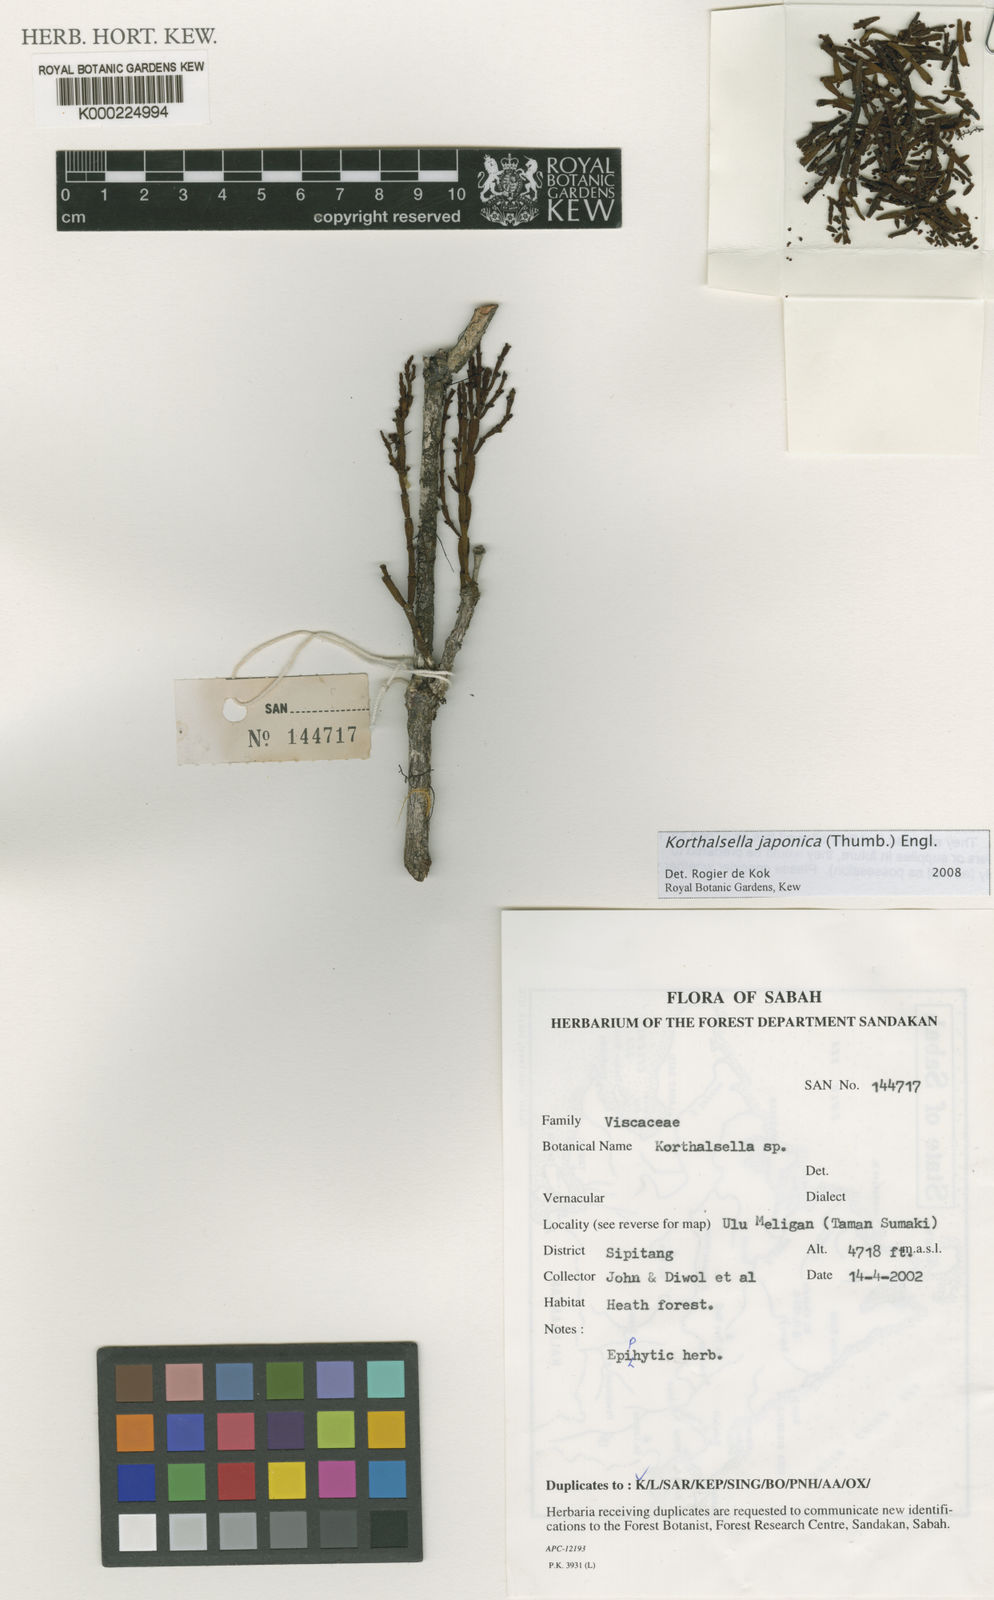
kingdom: Plantae
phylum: Tracheophyta
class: Magnoliopsida
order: Santalales
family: Viscaceae
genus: Korthalsella
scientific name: Korthalsella japonica
